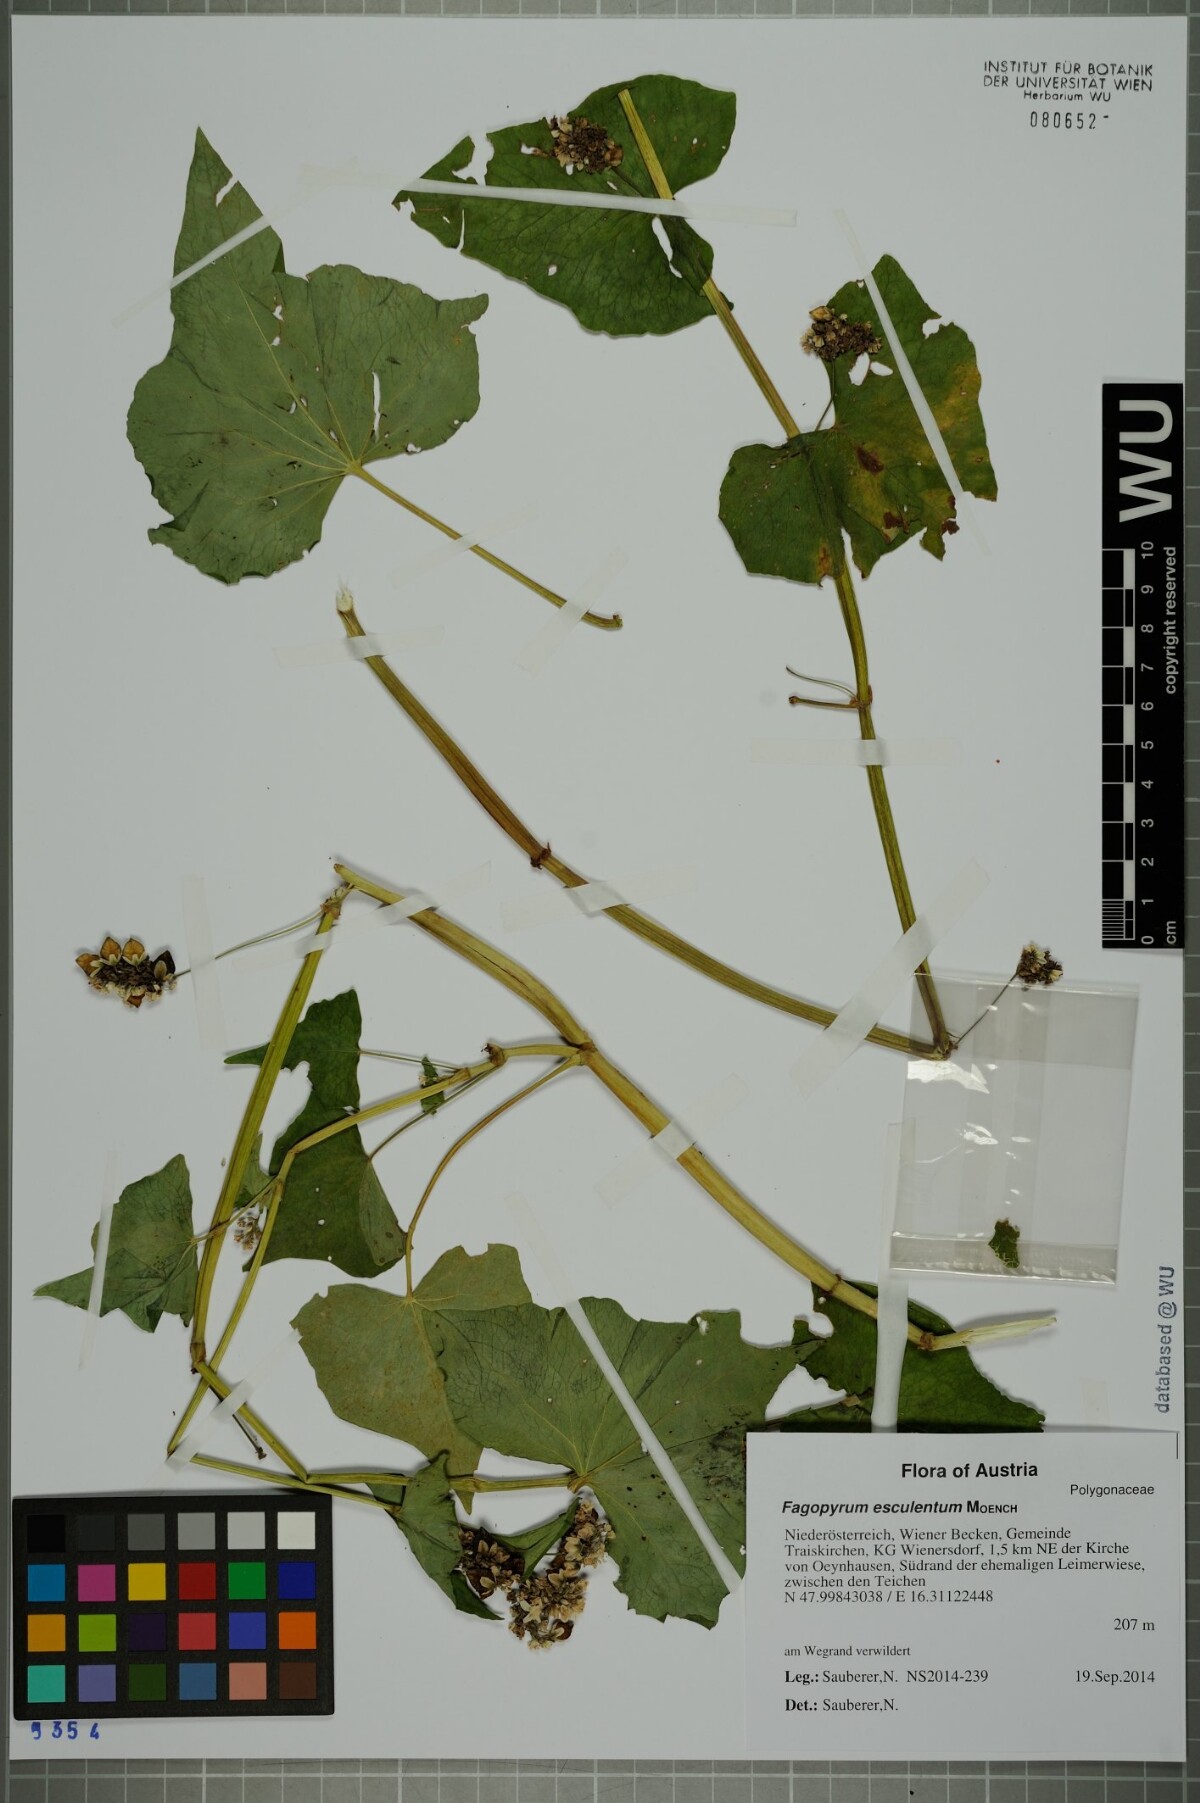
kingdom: Plantae
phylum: Tracheophyta
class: Magnoliopsida
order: Caryophyllales
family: Polygonaceae
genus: Fagopyrum
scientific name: Fagopyrum esculentum
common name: Buckwheat
